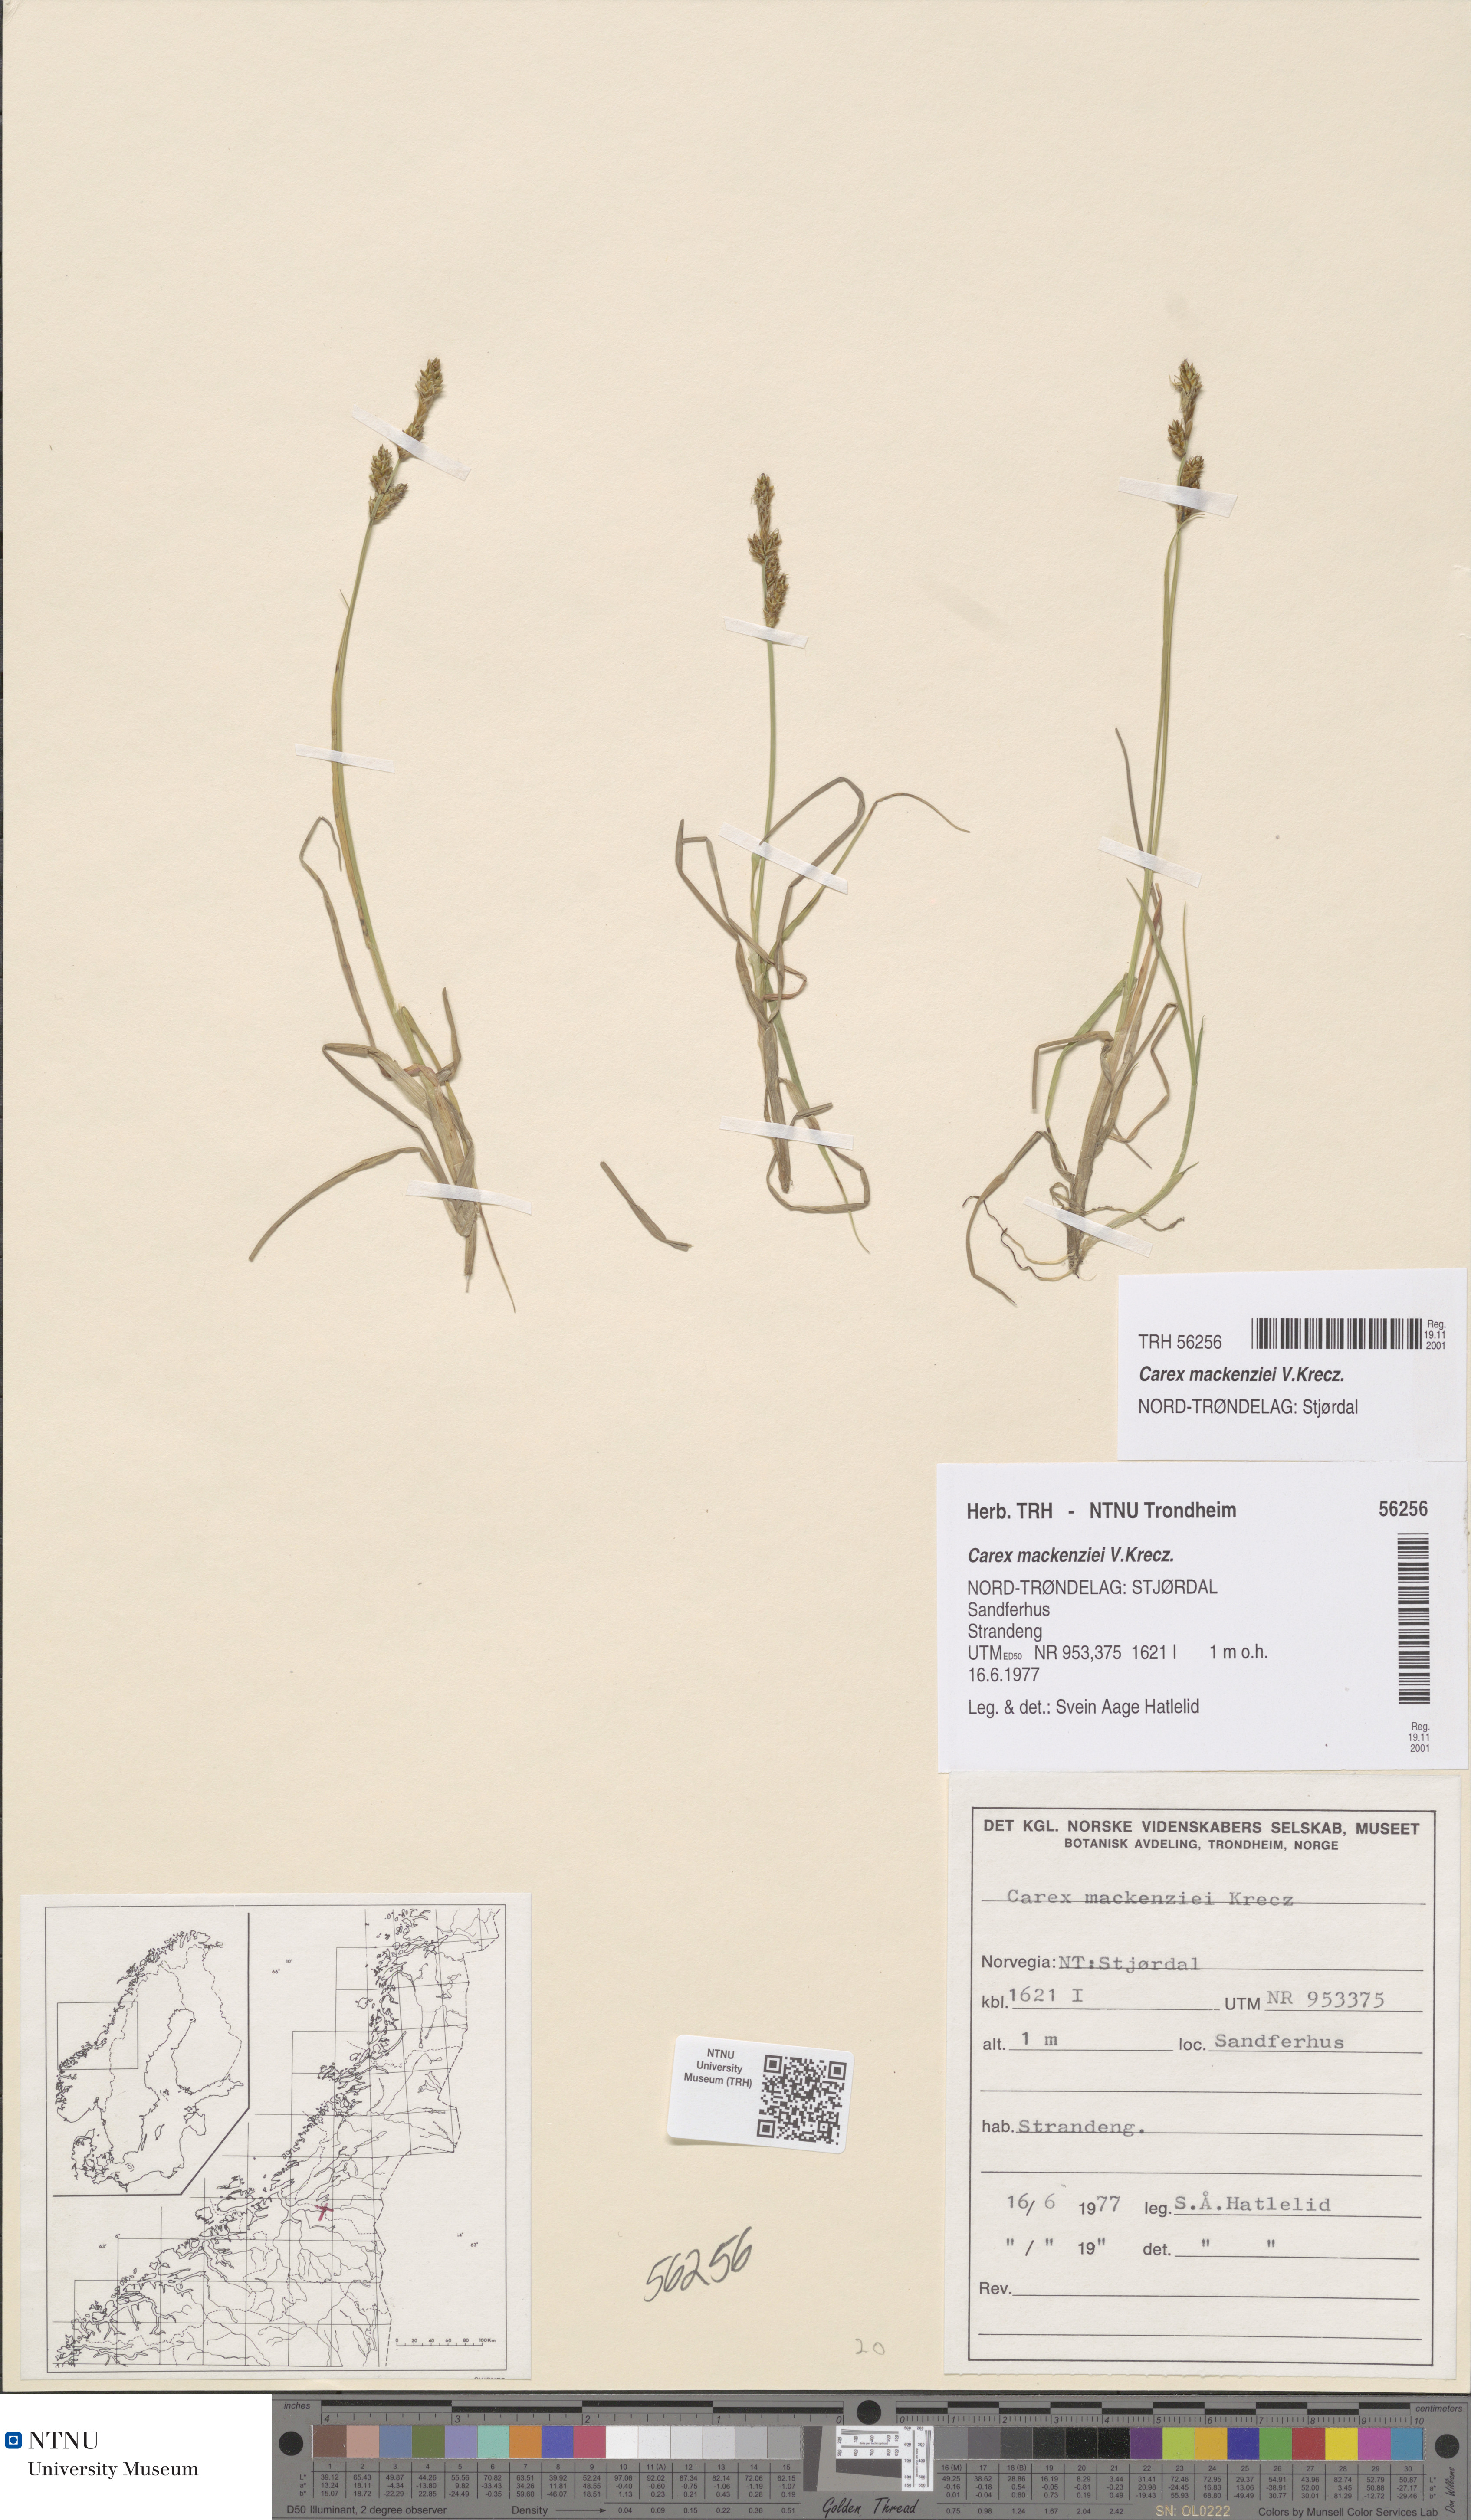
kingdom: Plantae
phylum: Tracheophyta
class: Liliopsida
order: Poales
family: Cyperaceae
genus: Carex
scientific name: Carex mackenziei
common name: Mackenzie's sedge
